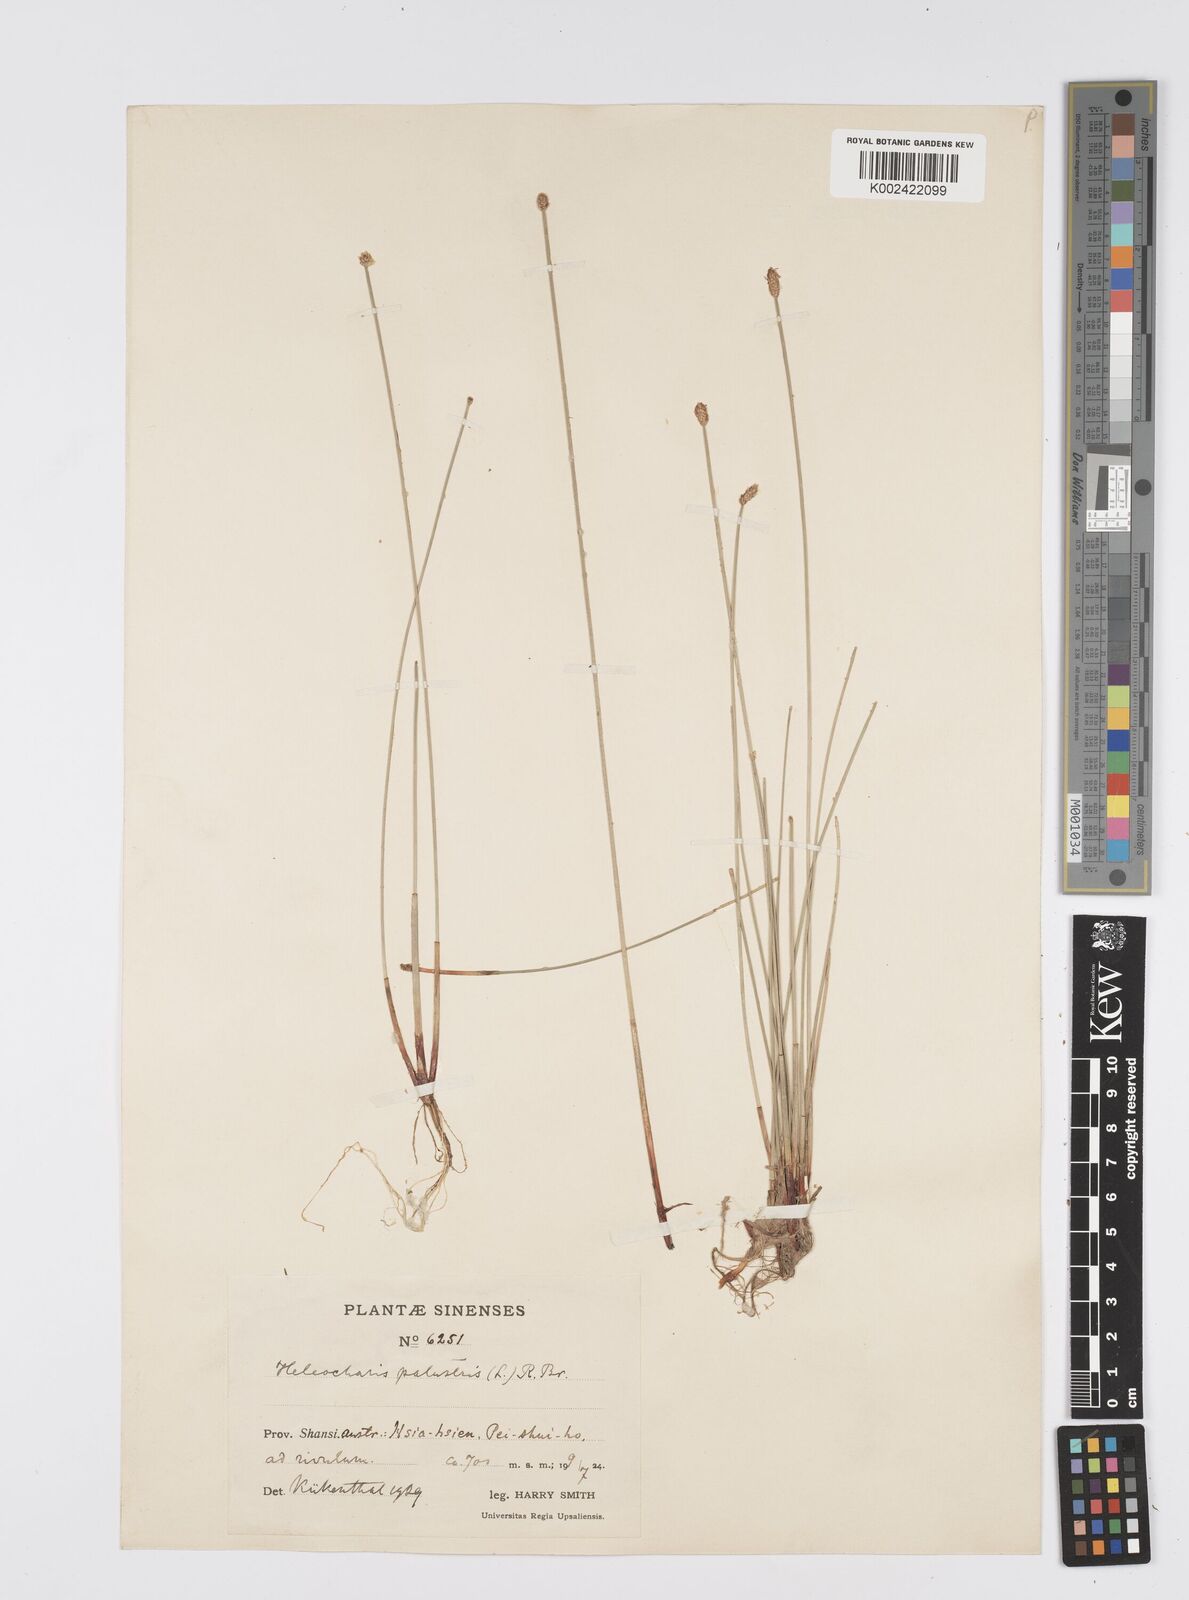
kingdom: Plantae
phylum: Tracheophyta
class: Liliopsida
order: Poales
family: Cyperaceae
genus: Eleocharis
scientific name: Eleocharis palustris
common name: Common spike-rush
